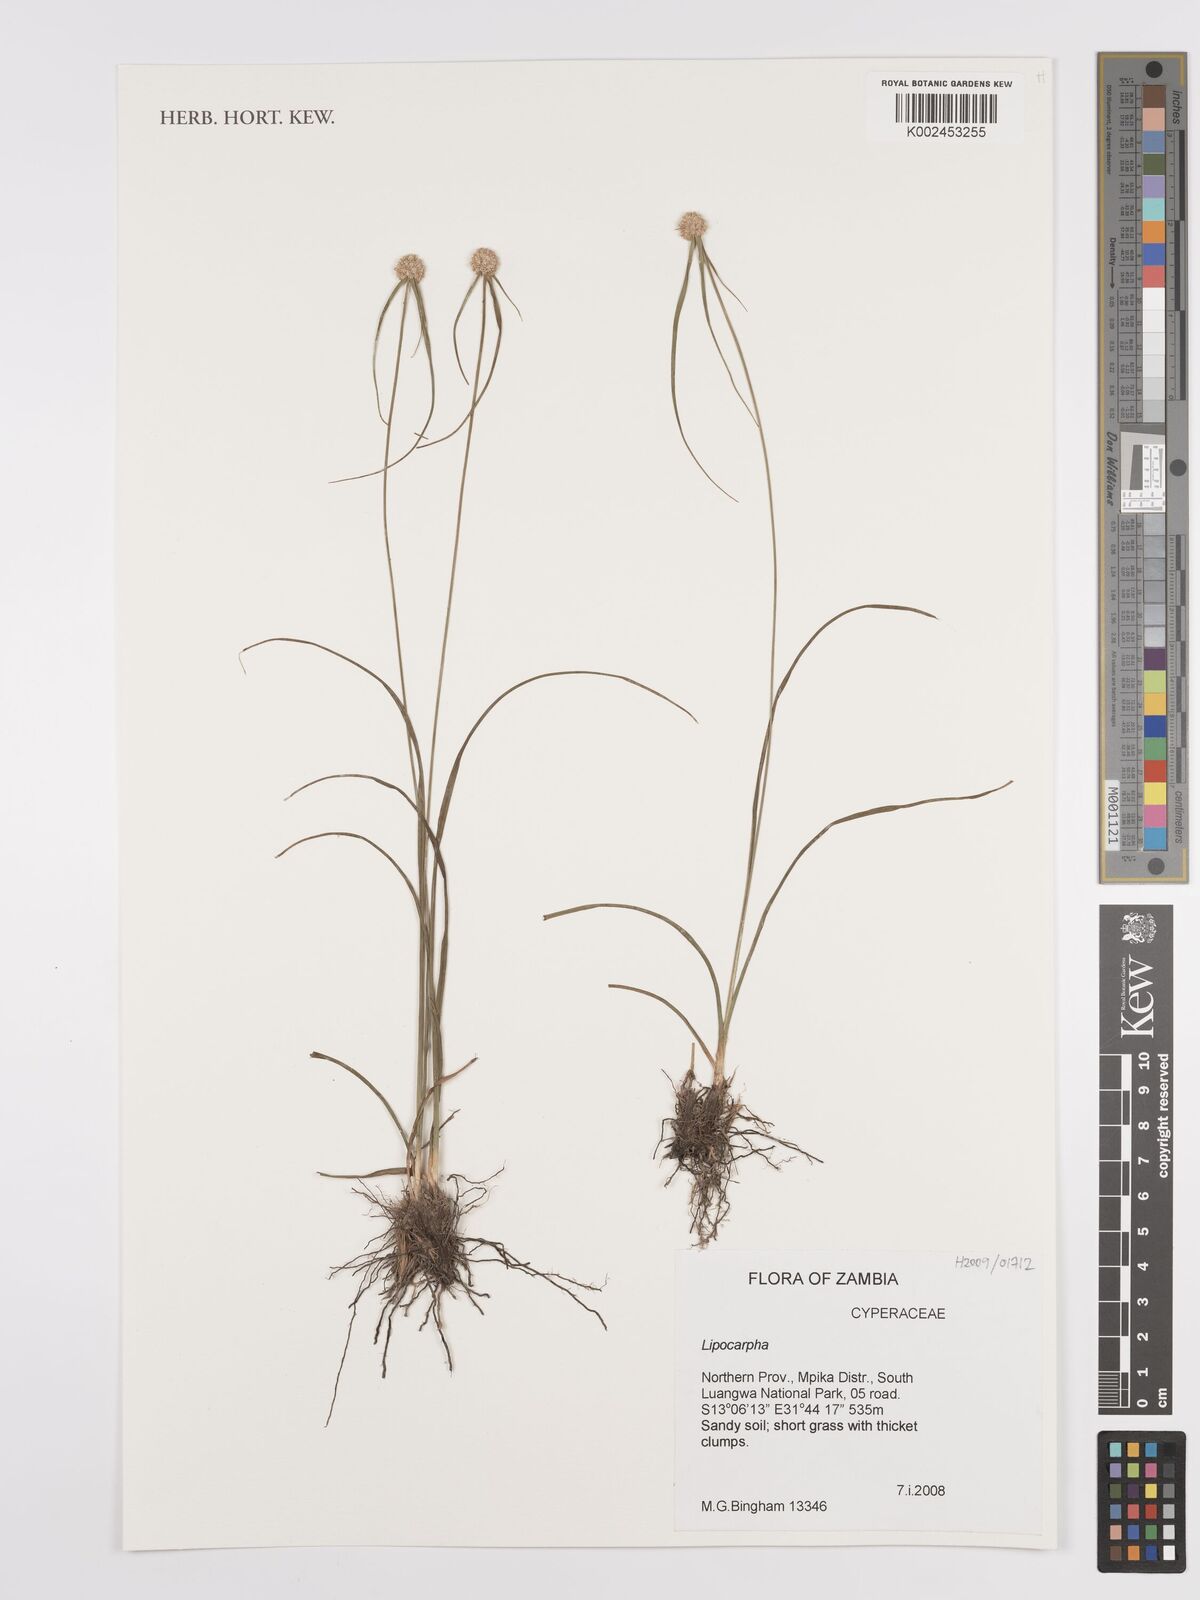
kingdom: Plantae
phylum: Tracheophyta
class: Liliopsida
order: Poales
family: Cyperaceae
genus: Cyperus
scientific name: Cyperus
